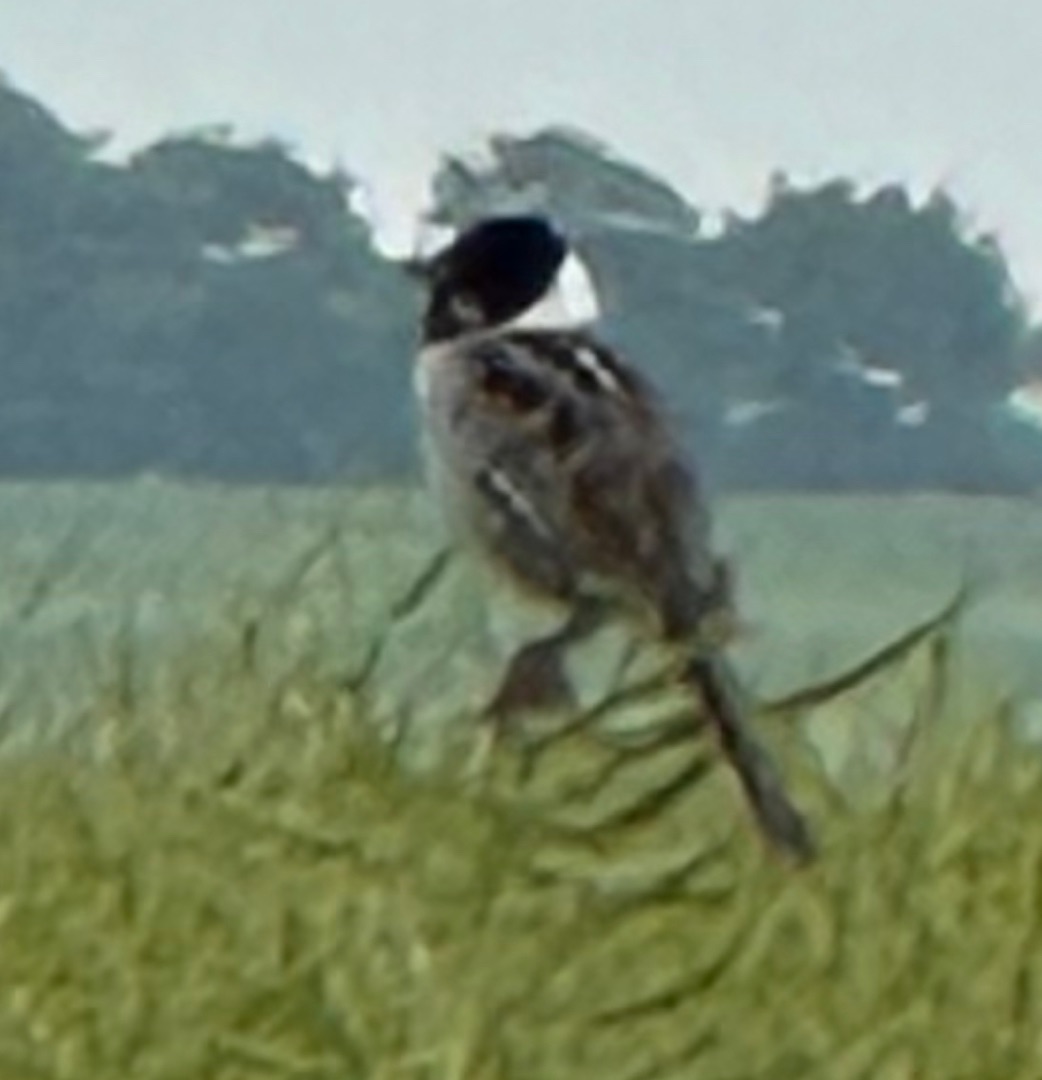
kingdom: Animalia
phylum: Chordata
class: Aves
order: Passeriformes
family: Emberizidae
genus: Emberiza
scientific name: Emberiza schoeniclus
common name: Rørspurv
